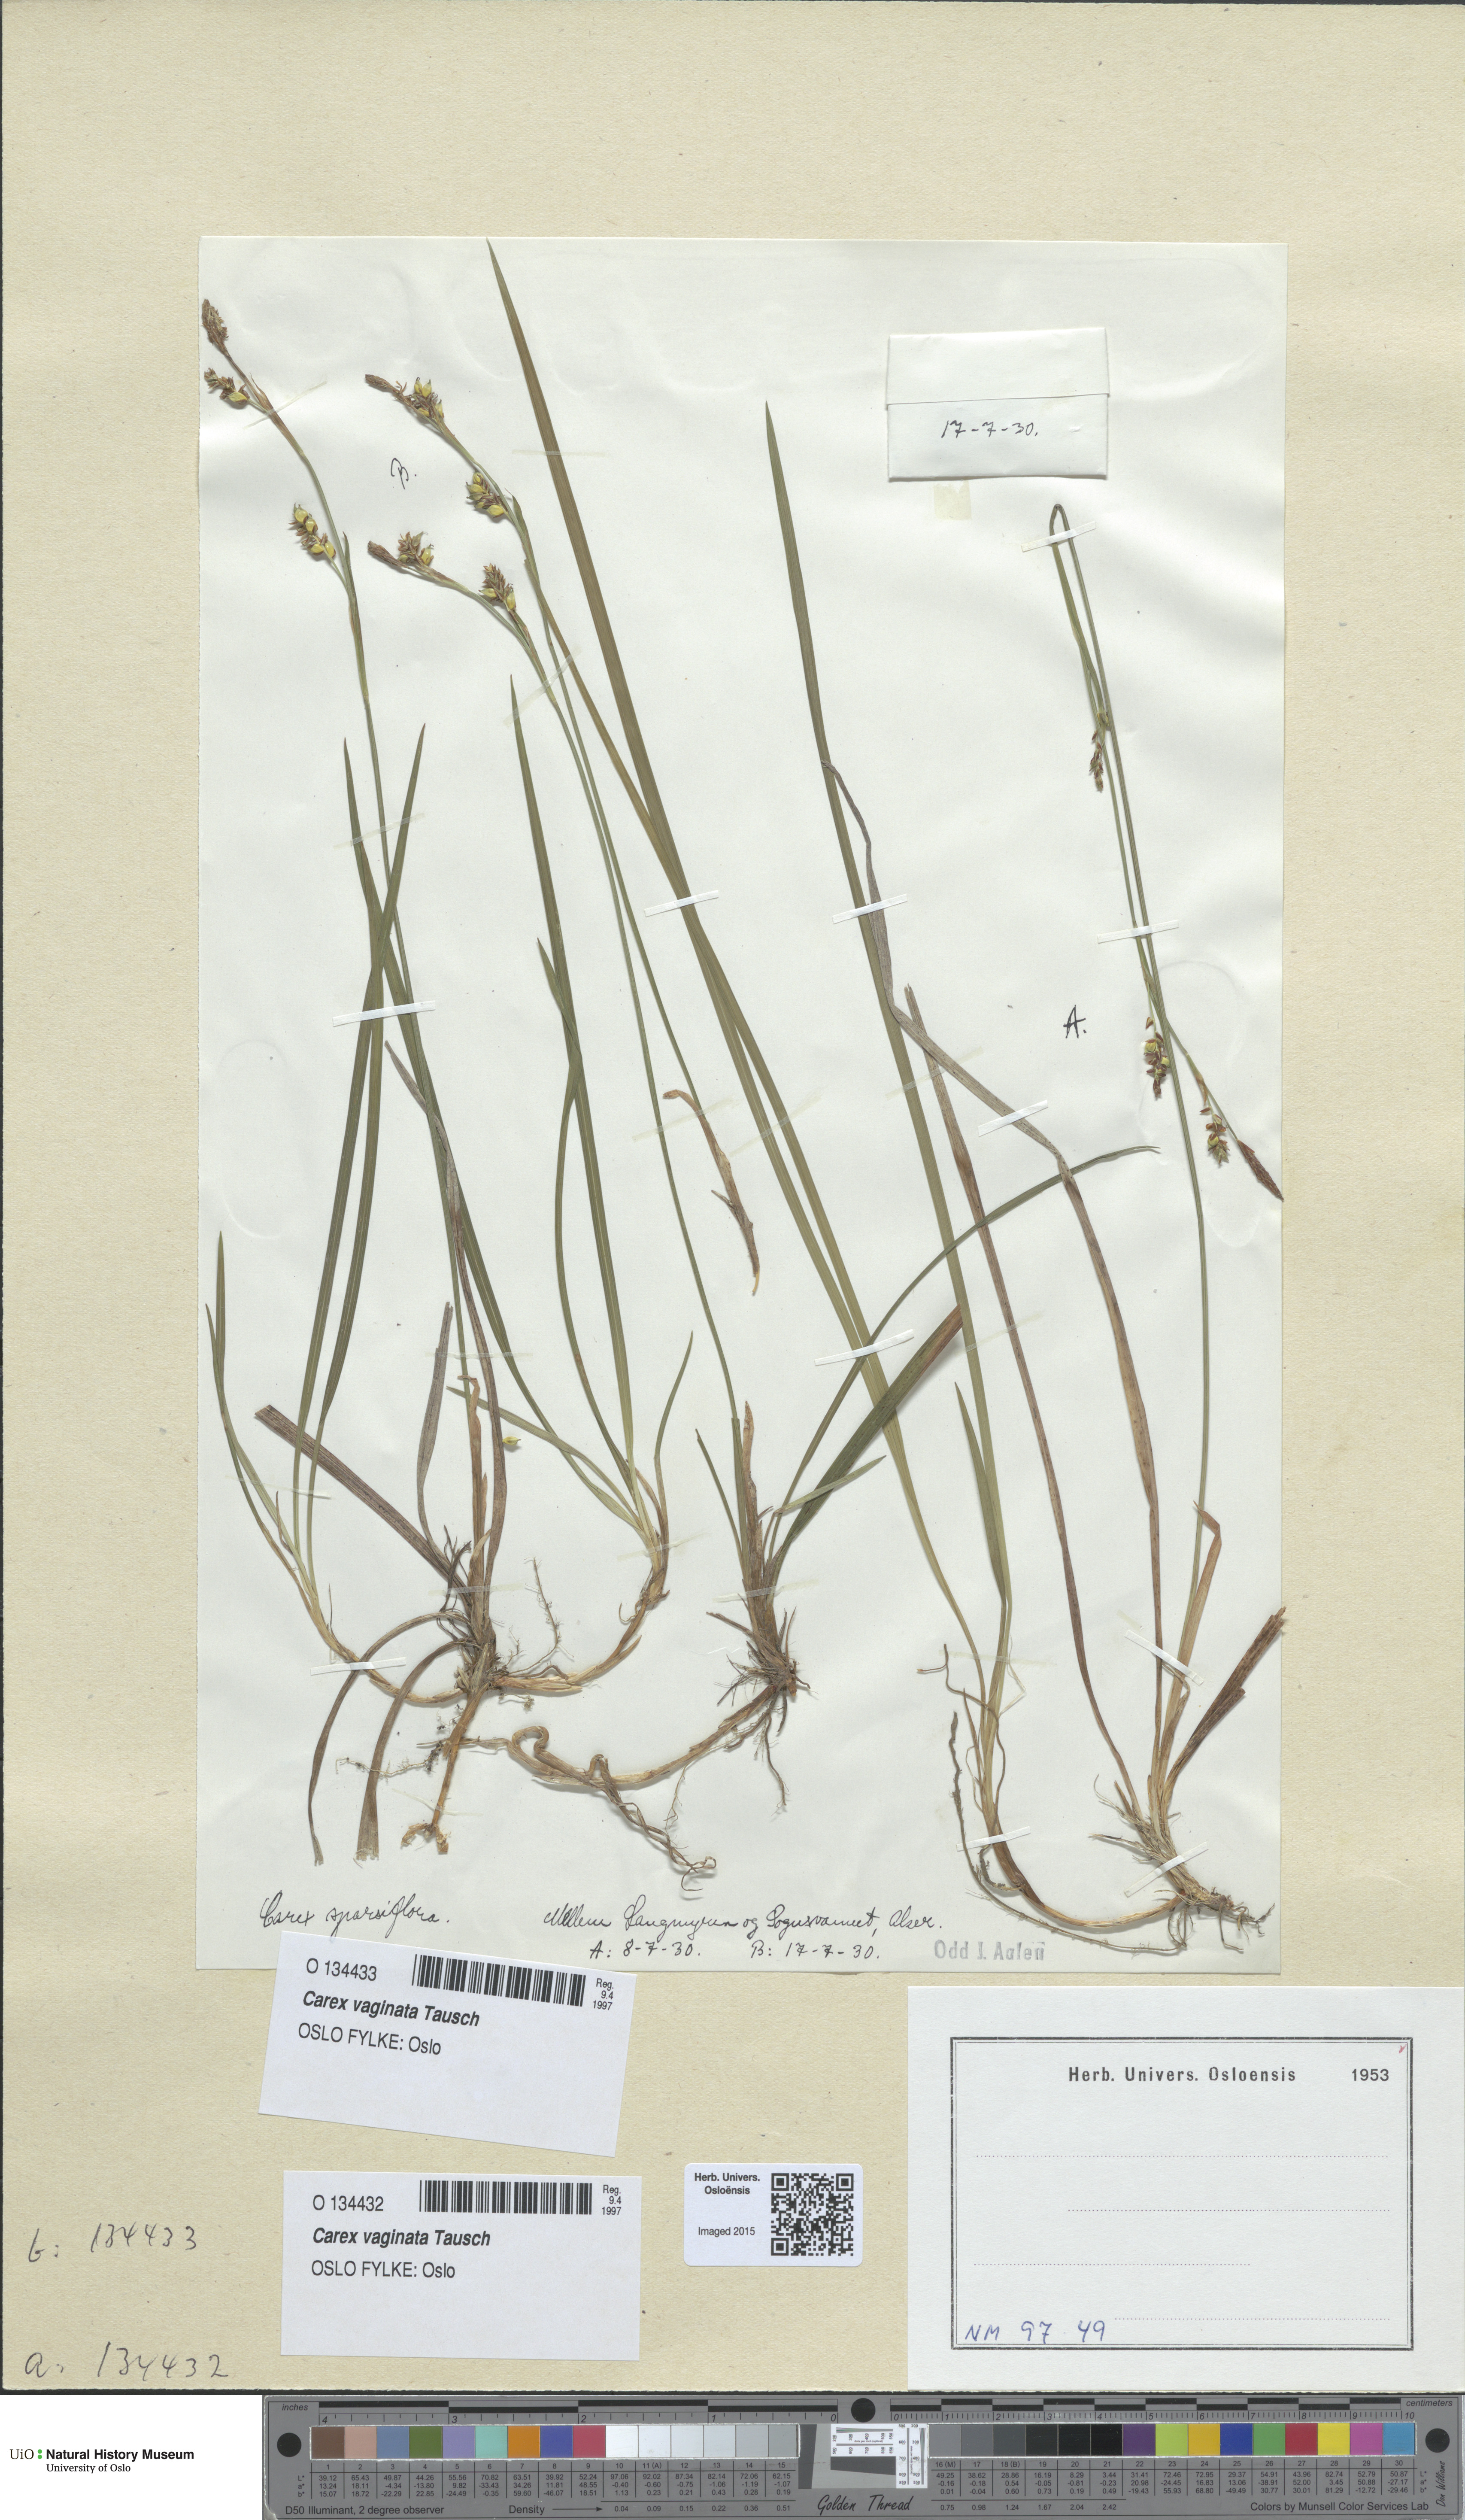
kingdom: Plantae
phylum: Tracheophyta
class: Liliopsida
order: Poales
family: Cyperaceae
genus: Carex
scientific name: Carex vaginata
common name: Sheathed sedge
